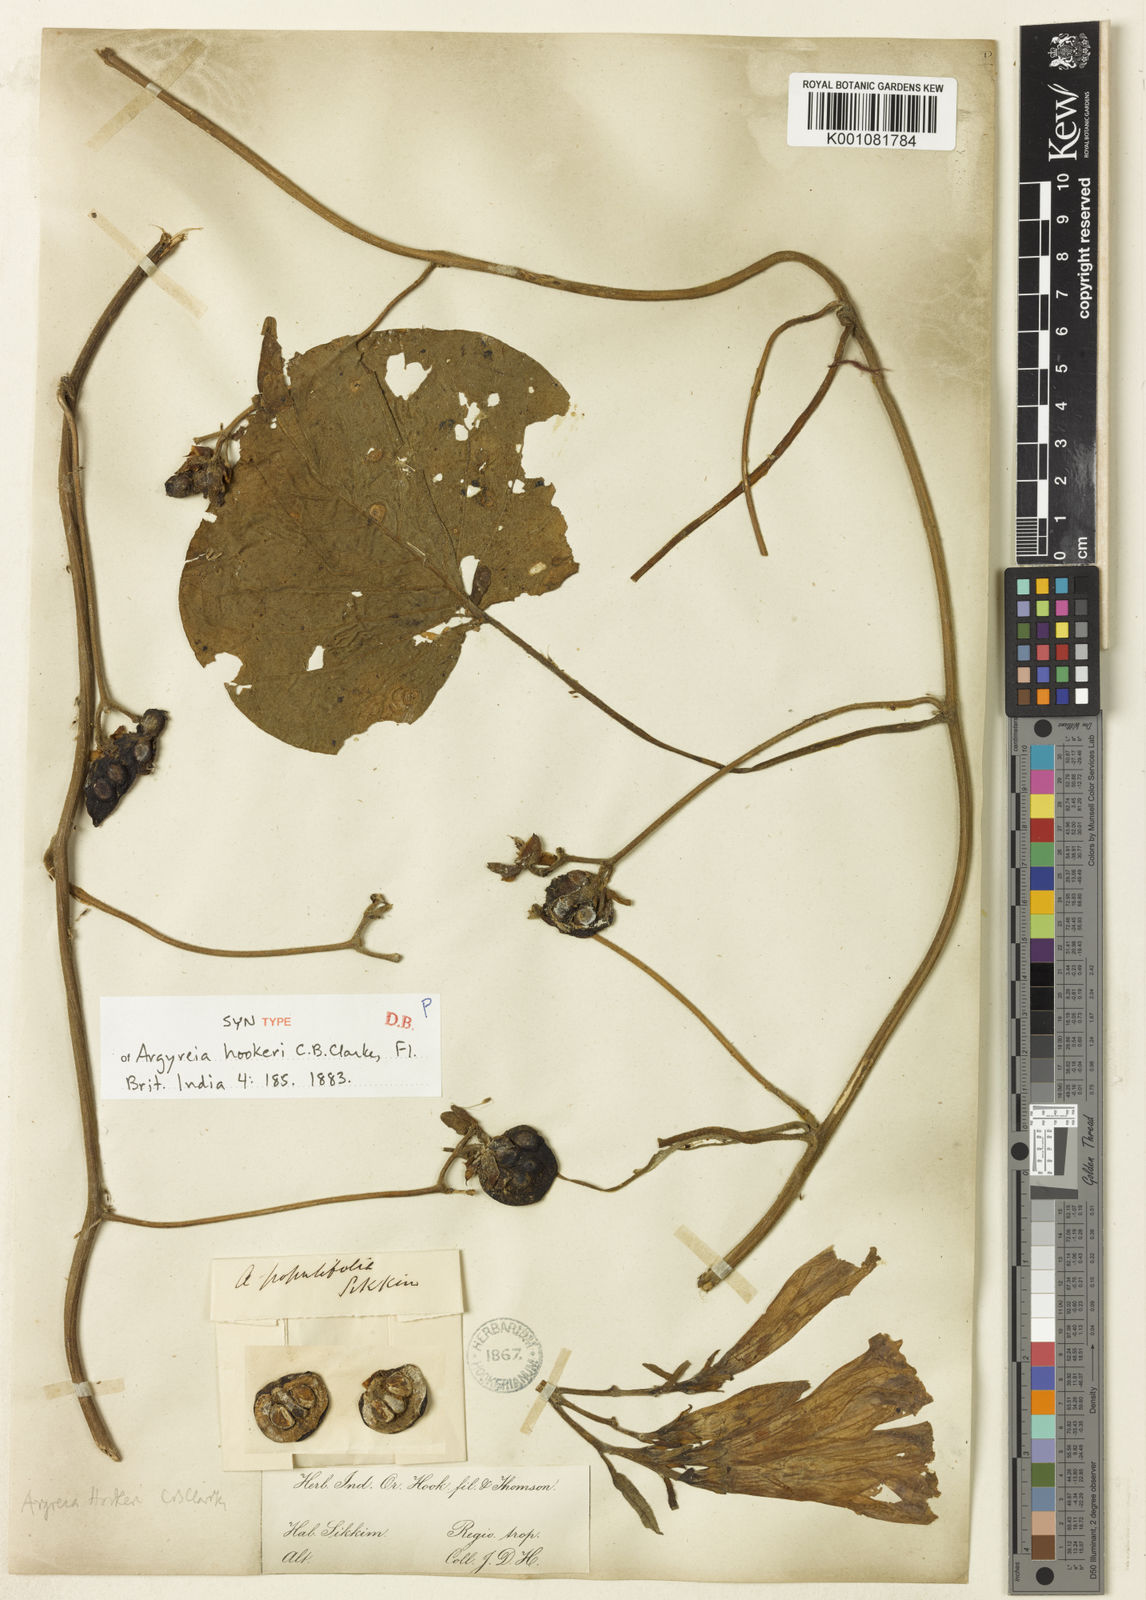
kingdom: Plantae
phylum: Tracheophyta
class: Magnoliopsida
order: Solanales
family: Convolvulaceae
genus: Argyreia
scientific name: Argyreia hookeri
